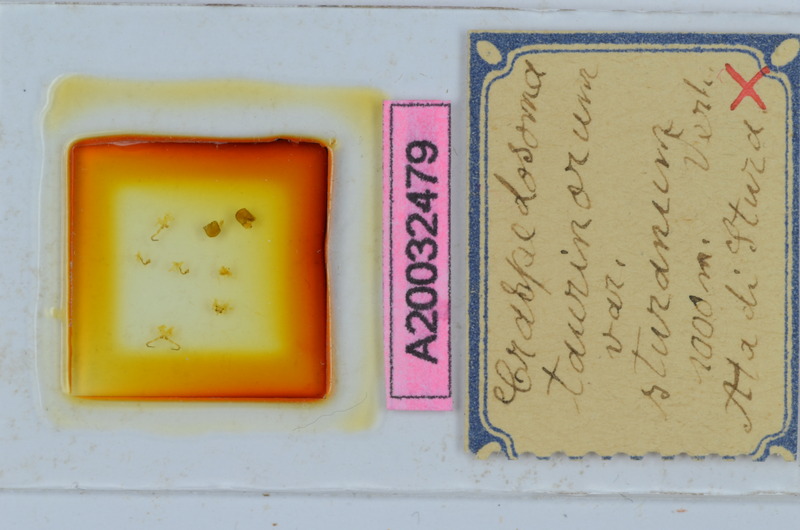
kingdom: Animalia
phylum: Arthropoda
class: Diplopoda
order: Chordeumatida
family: Craspedosomatidae
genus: Craspedosoma
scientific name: Craspedosoma taurinorum
